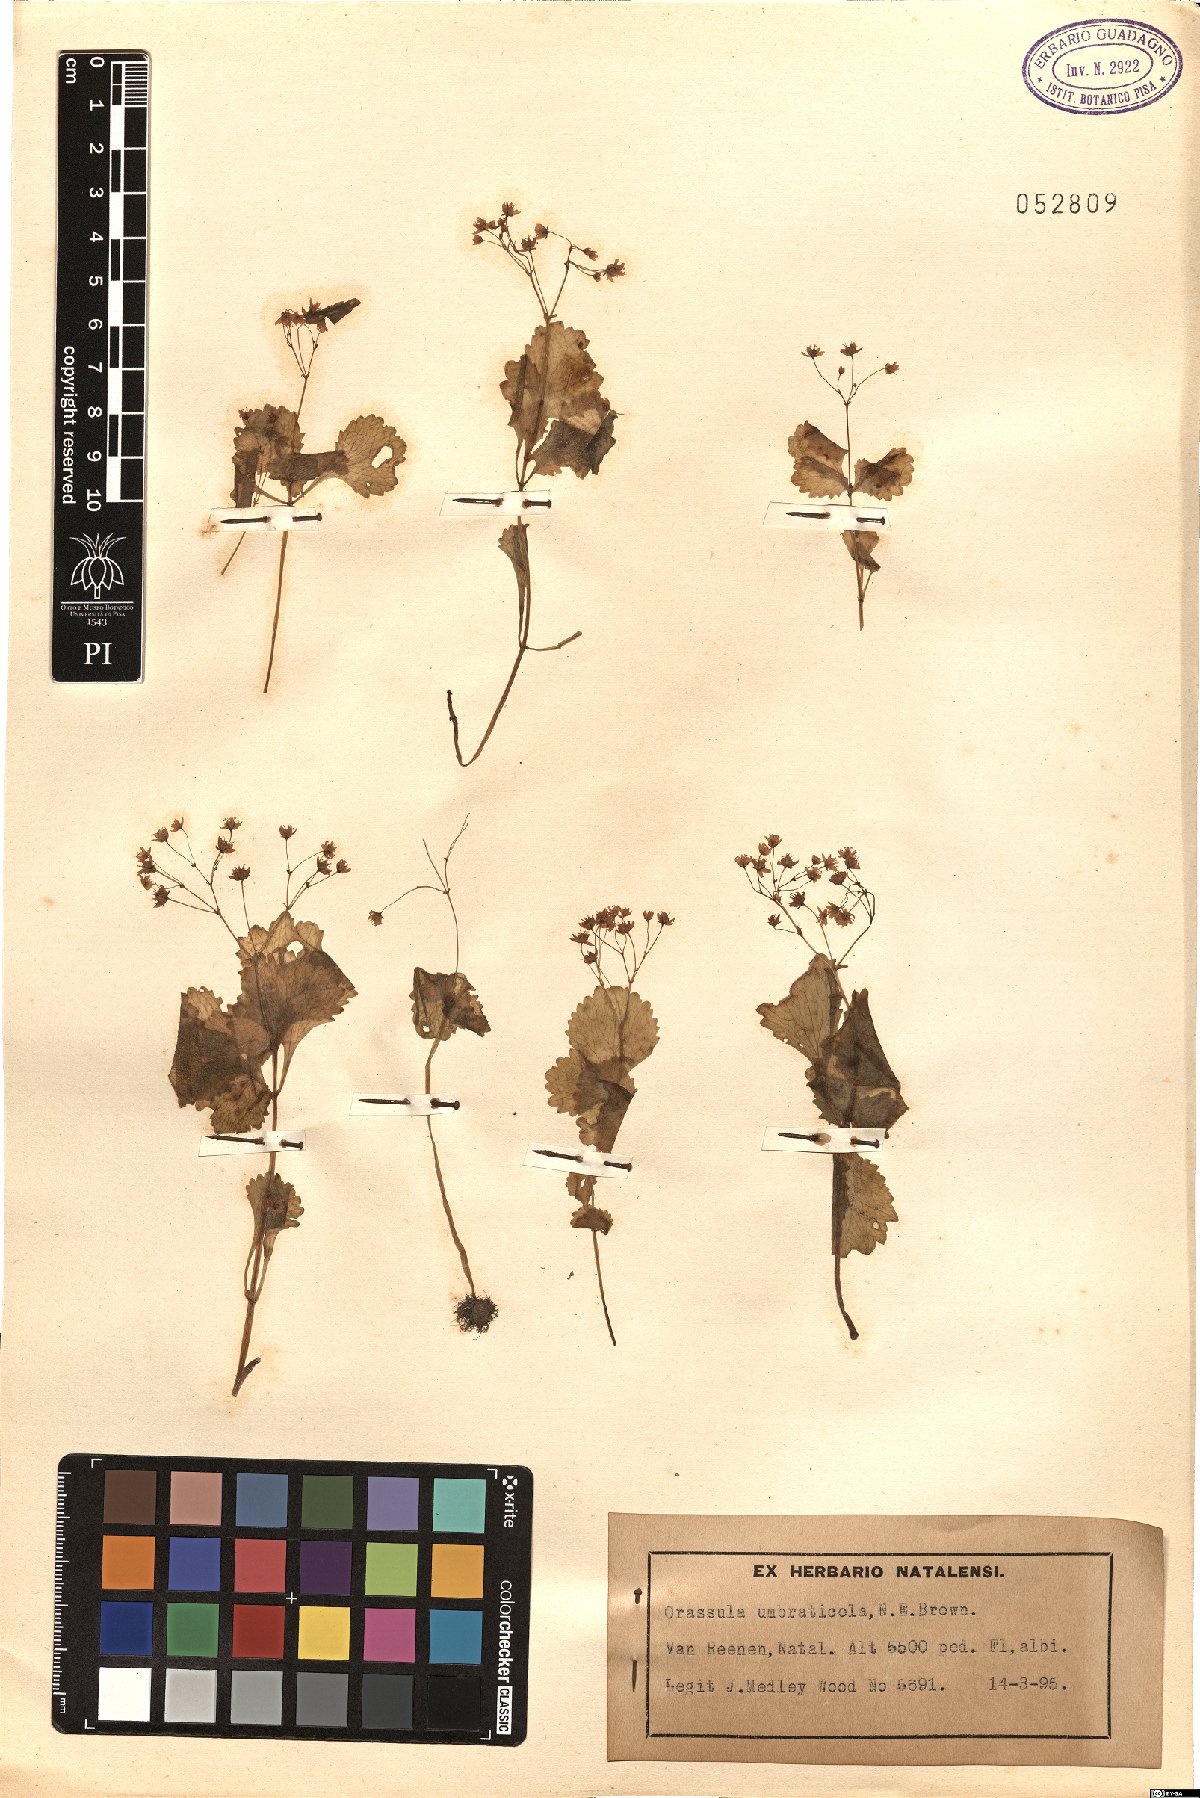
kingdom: Plantae
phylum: Tracheophyta
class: Magnoliopsida
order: Saxifragales
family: Crassulaceae
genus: Crassula
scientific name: Crassula umbraticola
